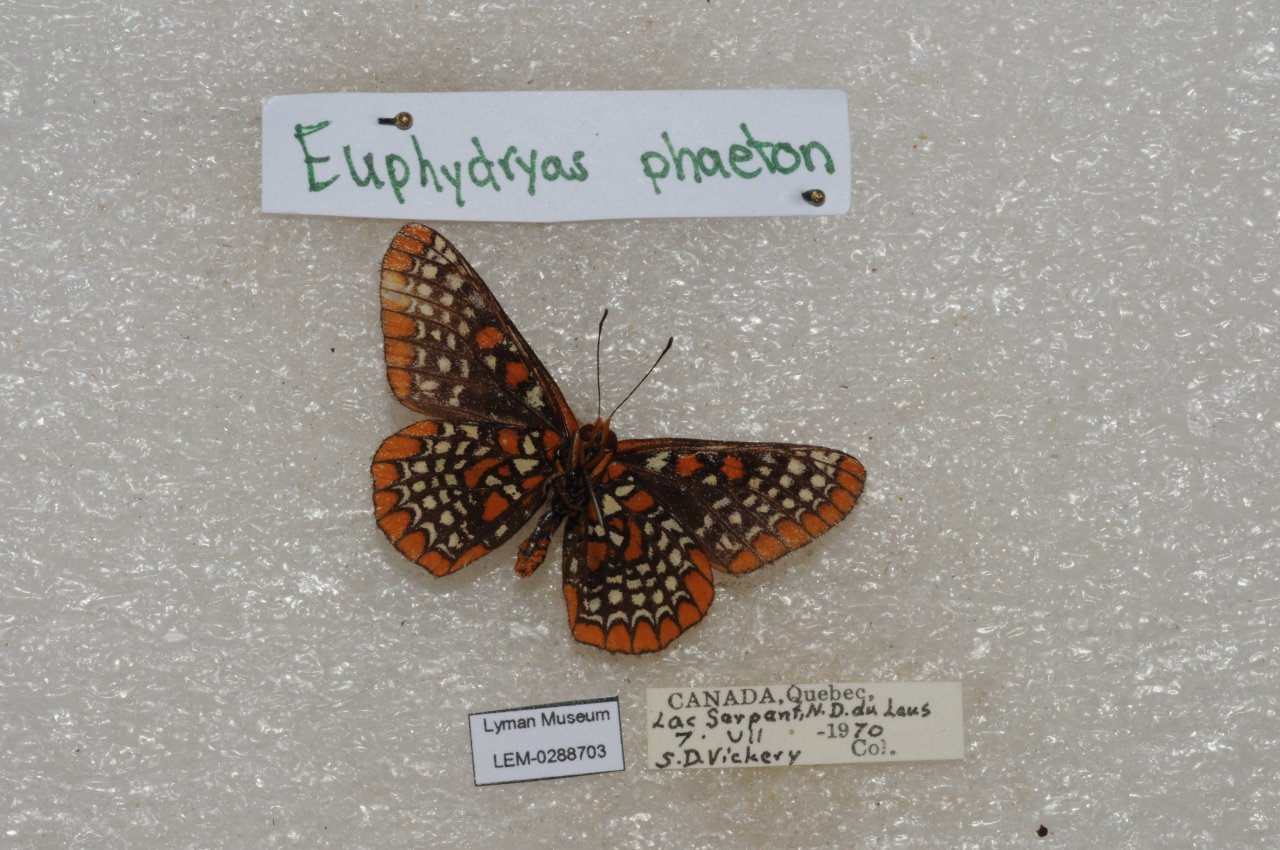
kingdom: Animalia
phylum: Arthropoda
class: Insecta
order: Lepidoptera
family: Nymphalidae
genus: Euphydryas
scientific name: Euphydryas phaeton
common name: Baltimore Checkerspot
